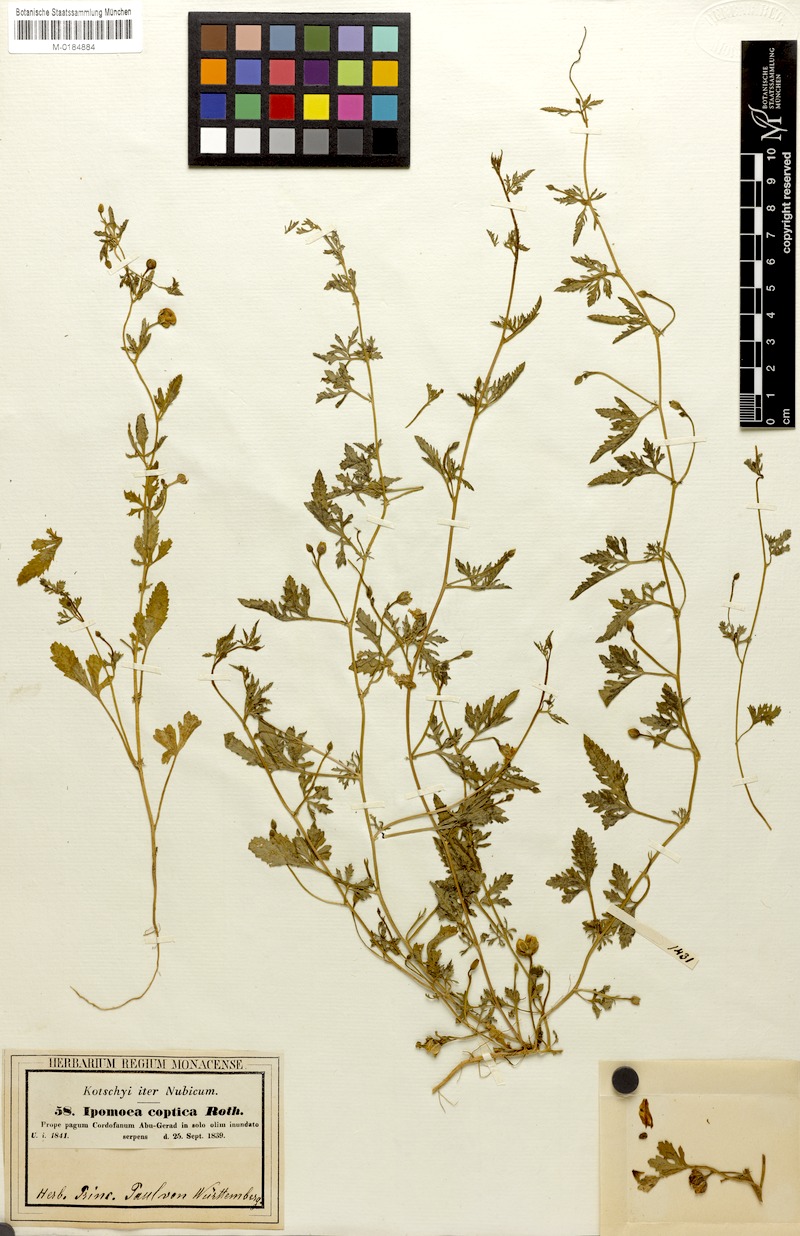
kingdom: Plantae
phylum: Tracheophyta
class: Magnoliopsida
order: Solanales
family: Convolvulaceae
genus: Ipomoea
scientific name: Ipomoea coptica
